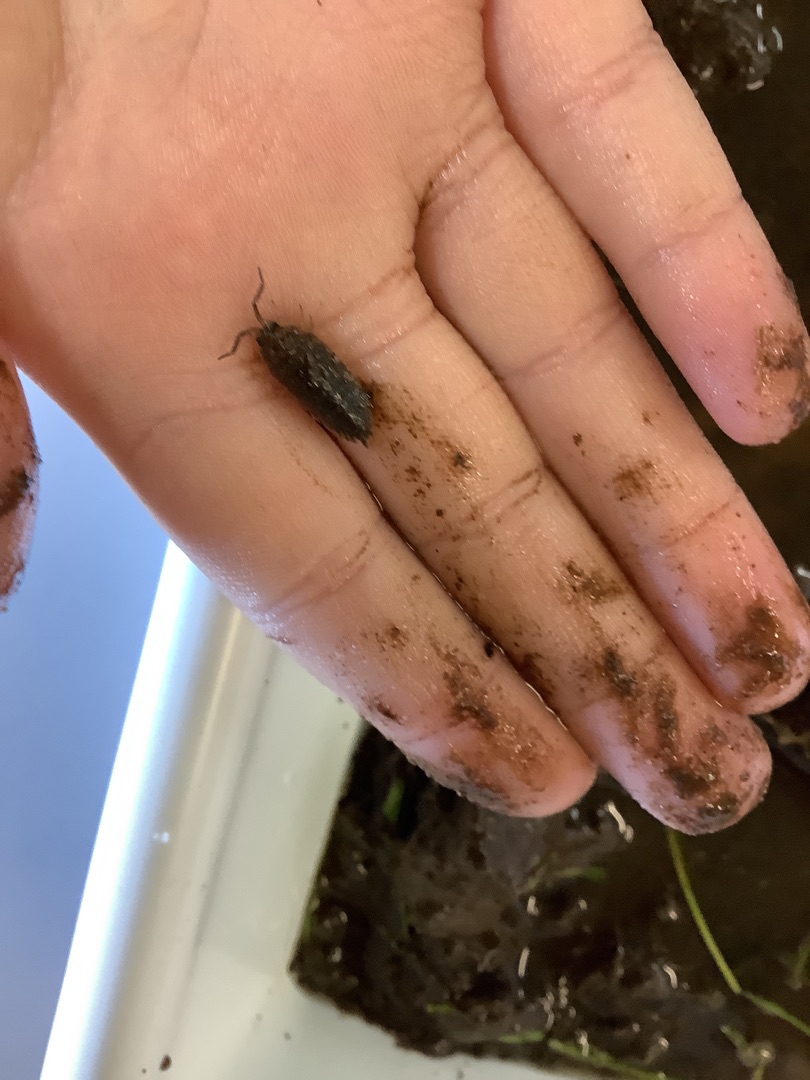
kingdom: Animalia
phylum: Arthropoda
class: Malacostraca
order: Isopoda
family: Porcellionidae
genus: Porcellio
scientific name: Porcellio scaber
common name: Grå bænkebider
